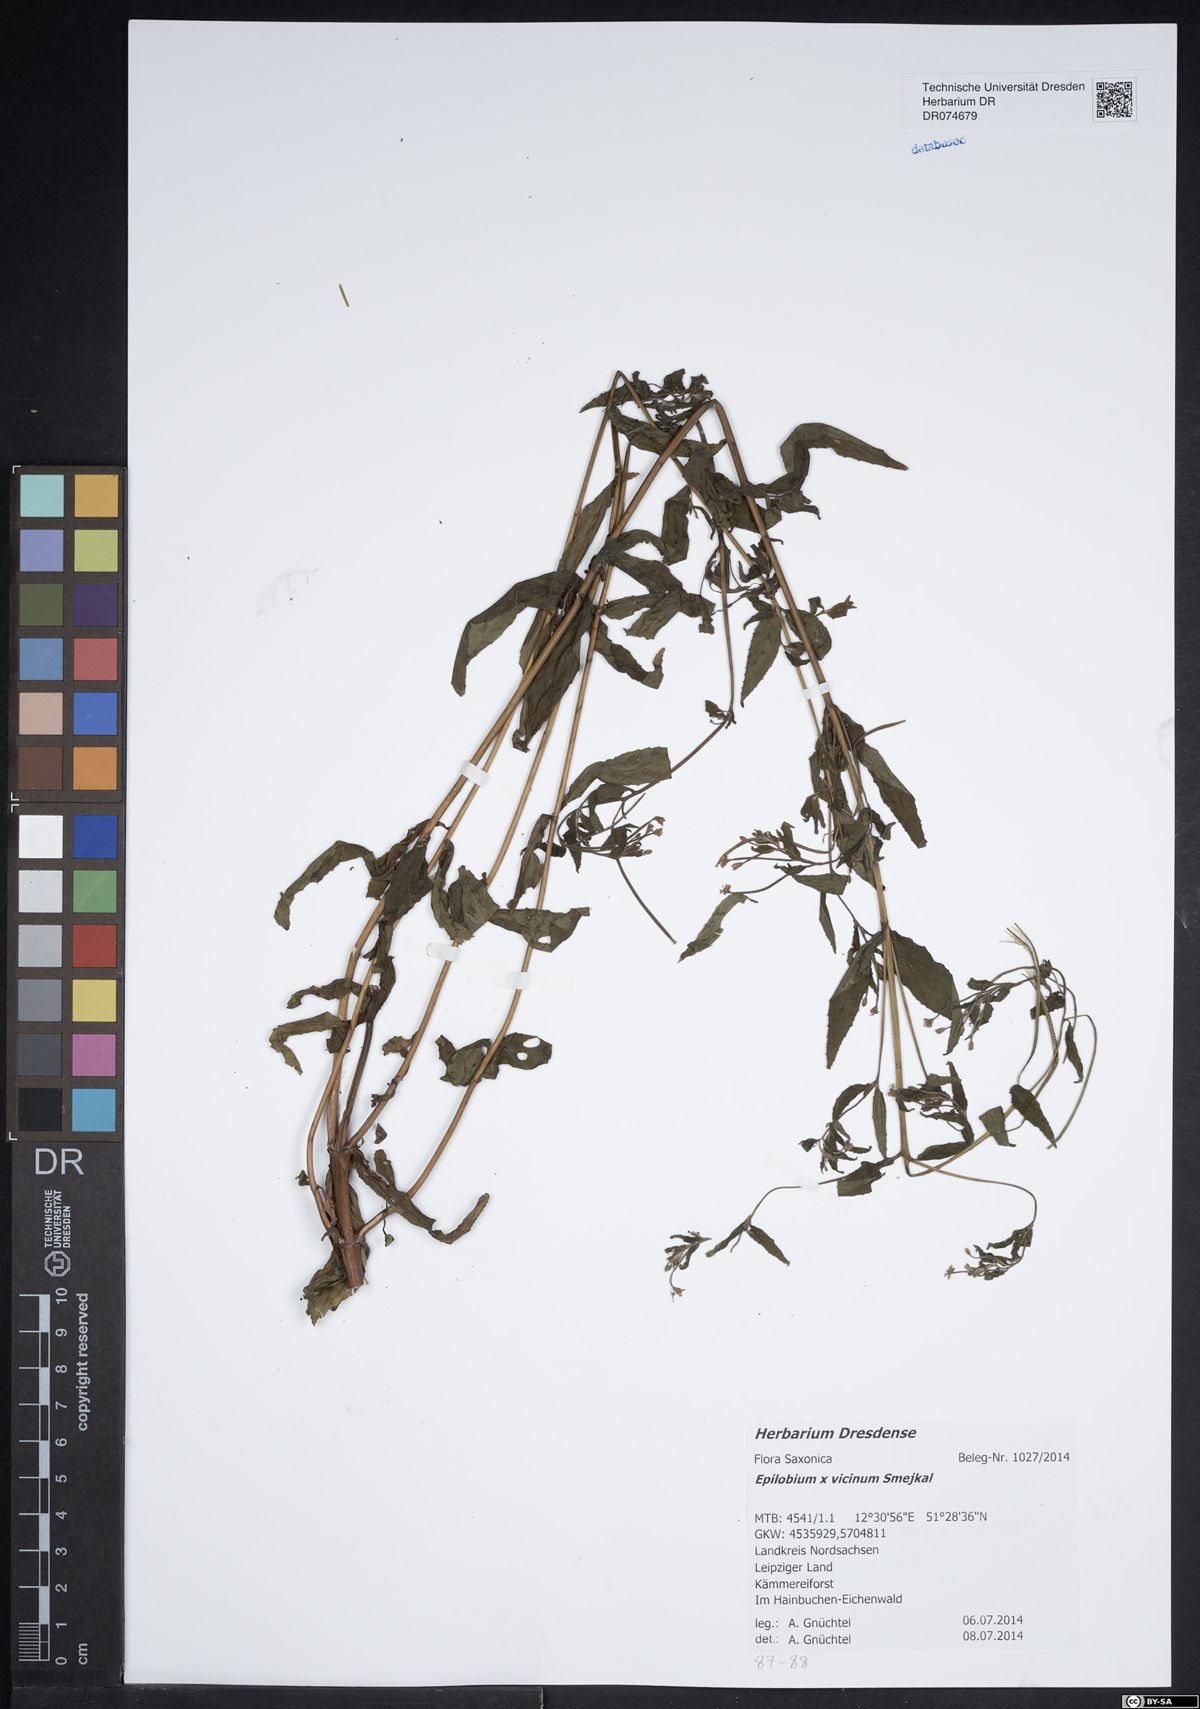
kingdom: Plantae
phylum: Tracheophyta
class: Magnoliopsida
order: Myrtales
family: Onagraceae
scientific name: Onagraceae
